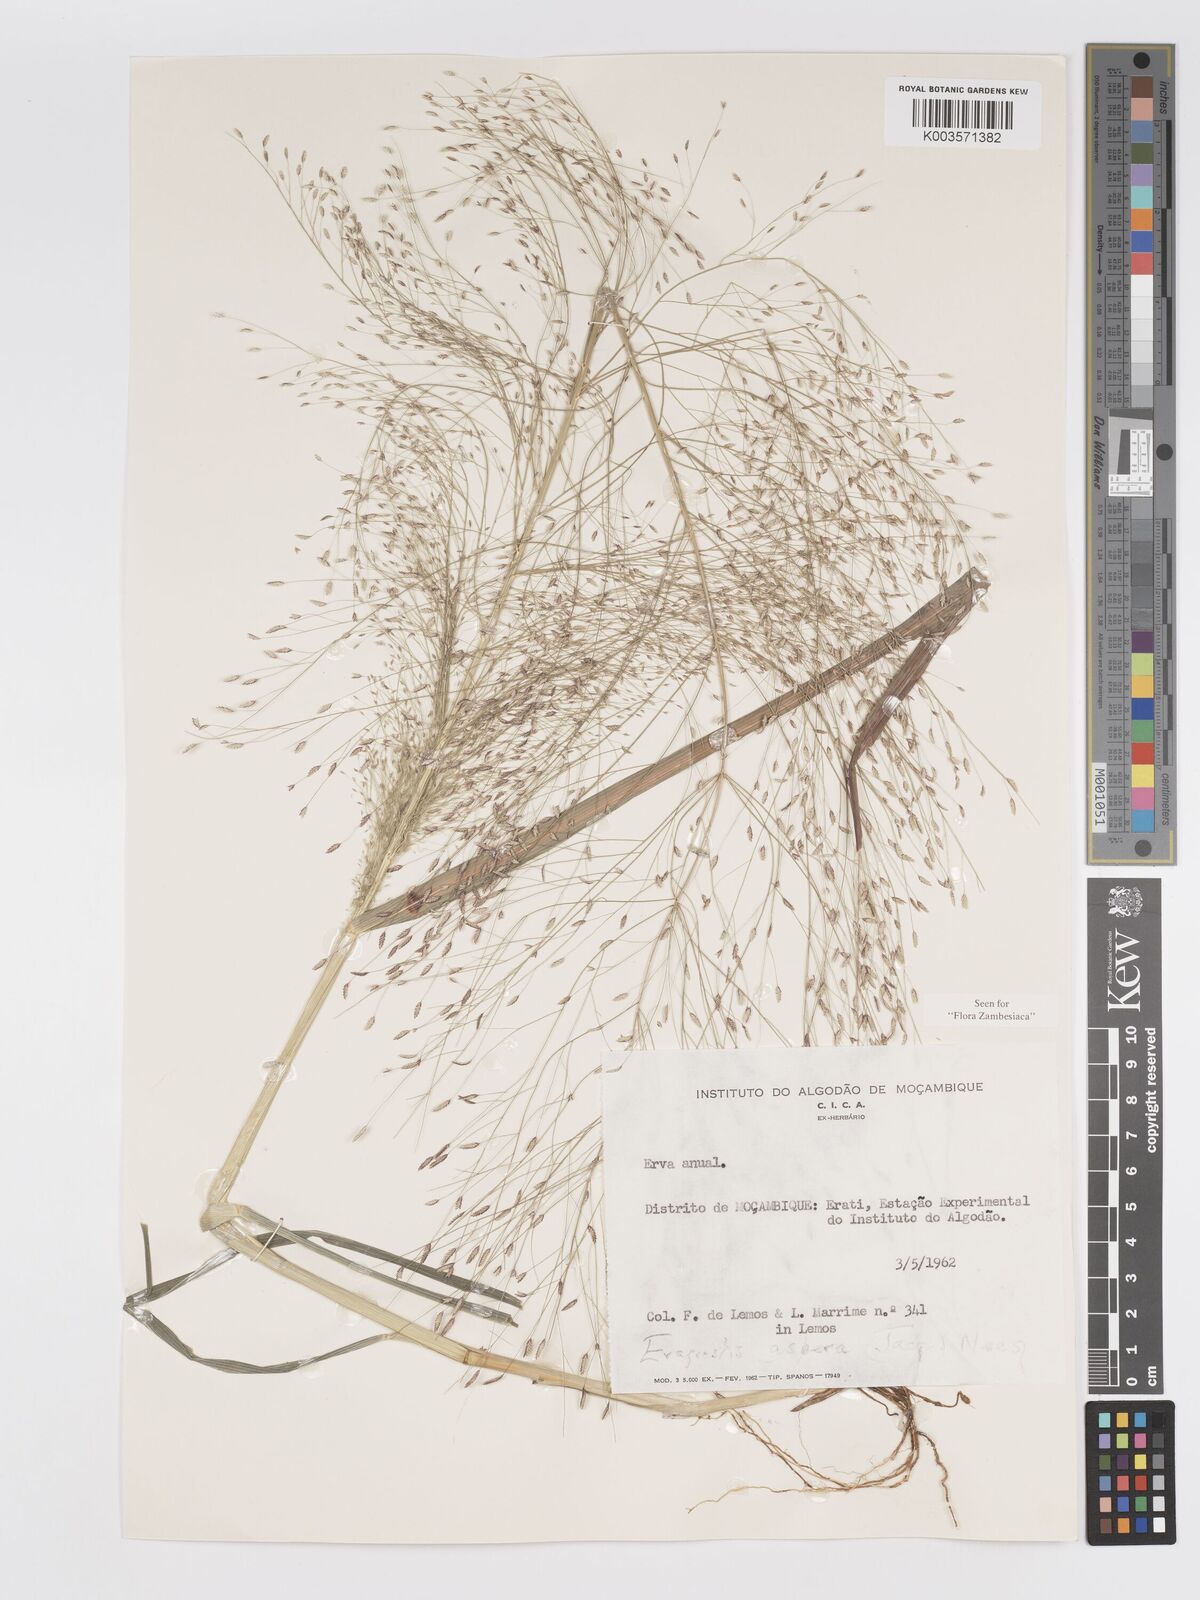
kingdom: Plantae
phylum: Tracheophyta
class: Liliopsida
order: Poales
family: Poaceae
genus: Eragrostis
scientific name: Eragrostis aspera
